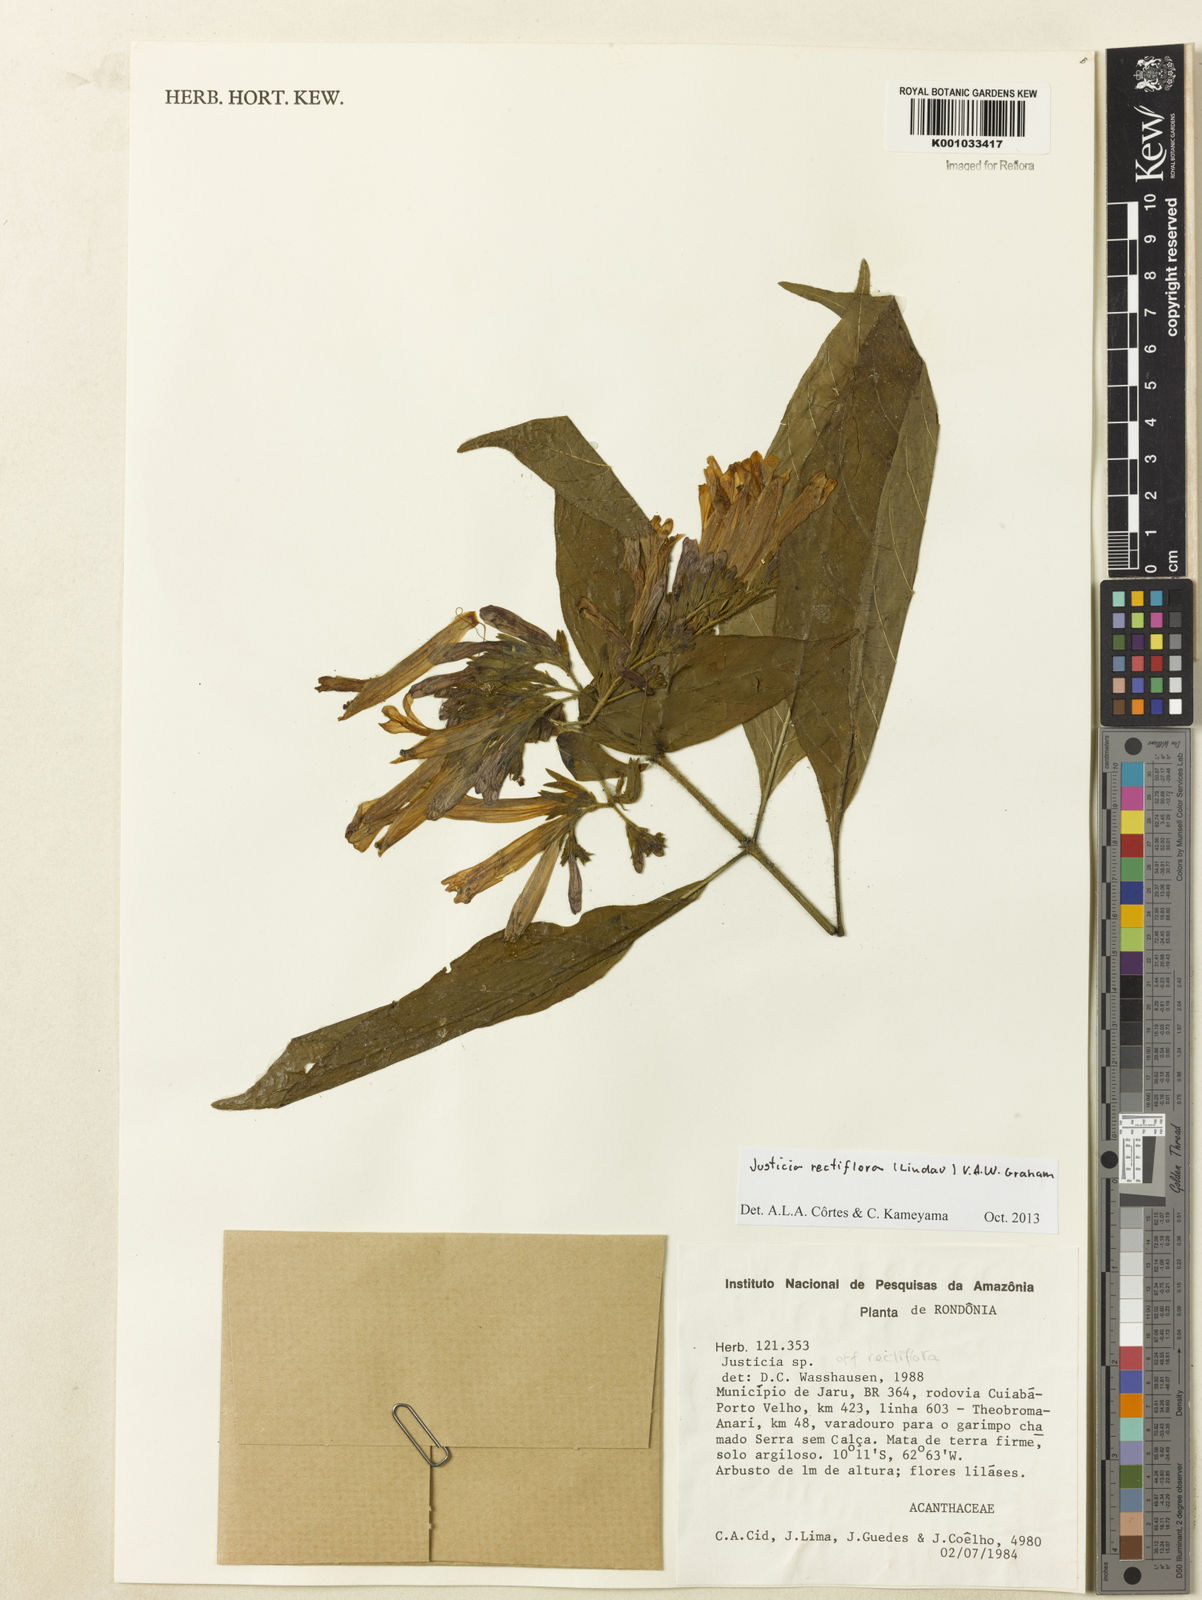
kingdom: Plantae
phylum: Tracheophyta
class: Magnoliopsida
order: Lamiales
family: Acanthaceae
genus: Justicia
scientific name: Justicia rectiflora
